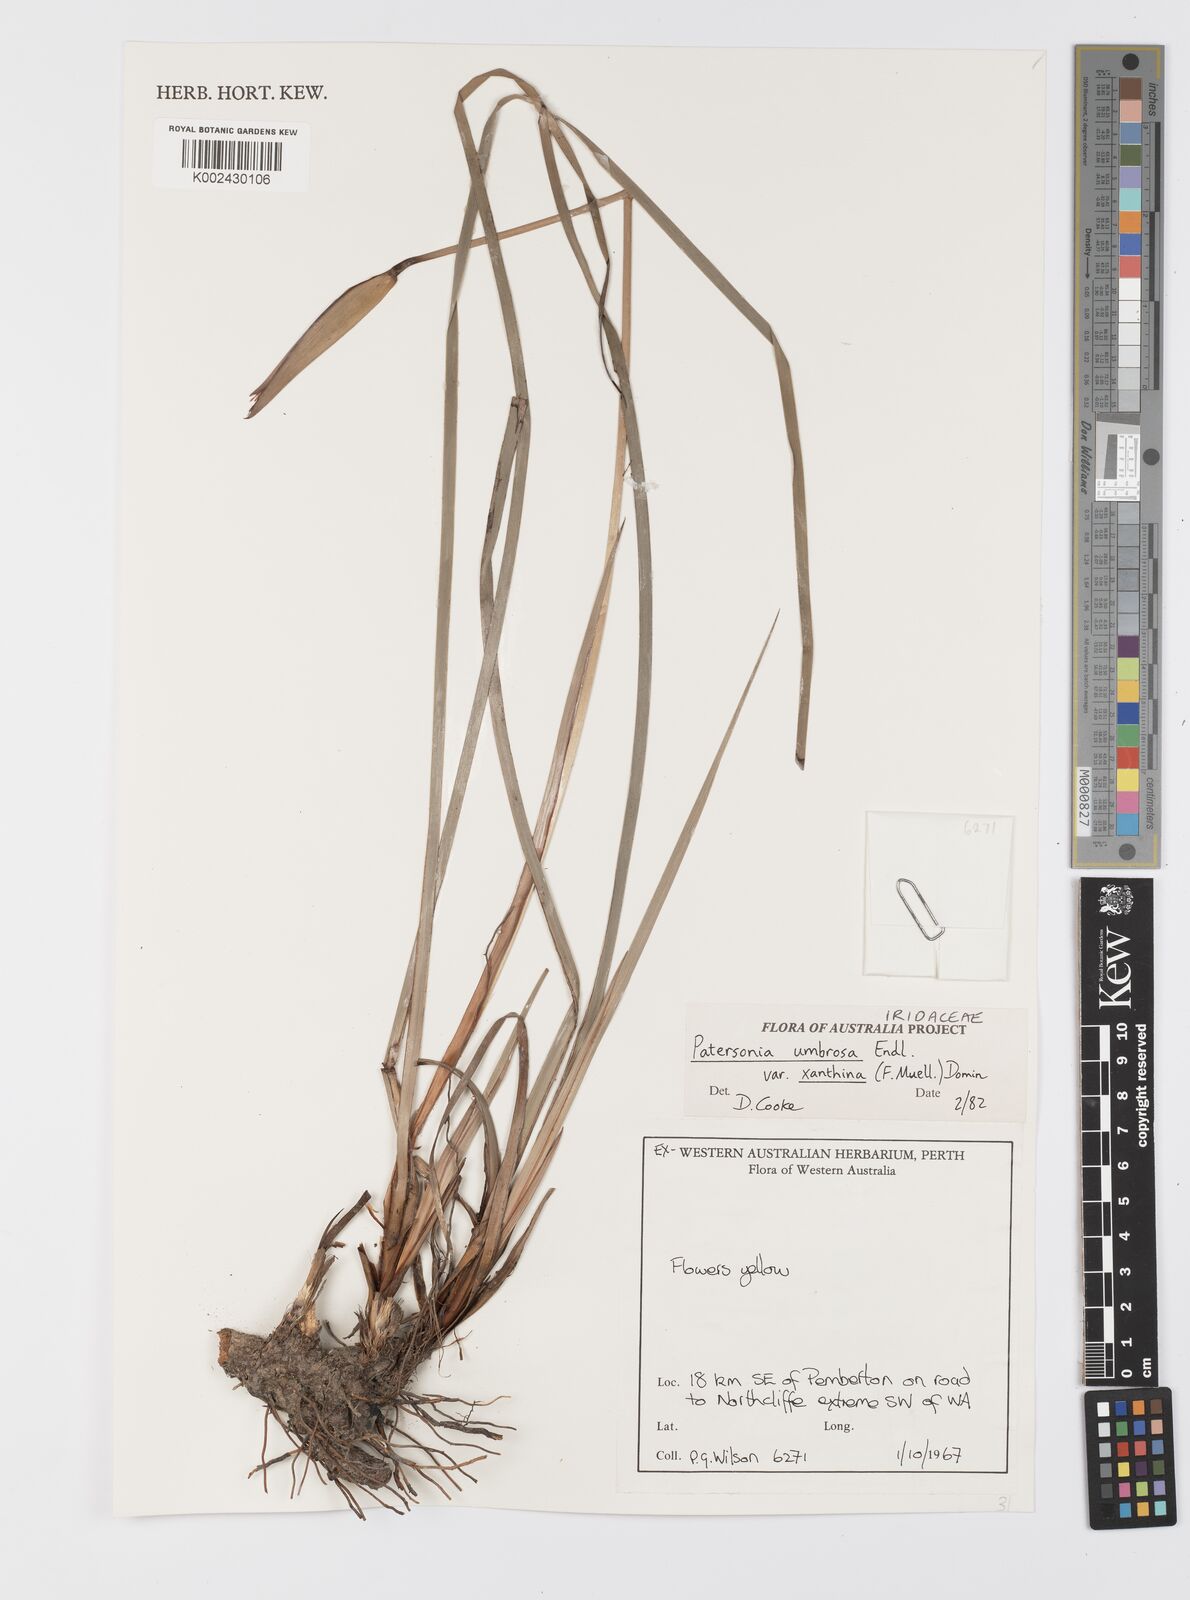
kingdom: Plantae
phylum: Tracheophyta
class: Liliopsida
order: Asparagales
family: Iridaceae
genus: Patersonia
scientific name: Patersonia umbrosa
